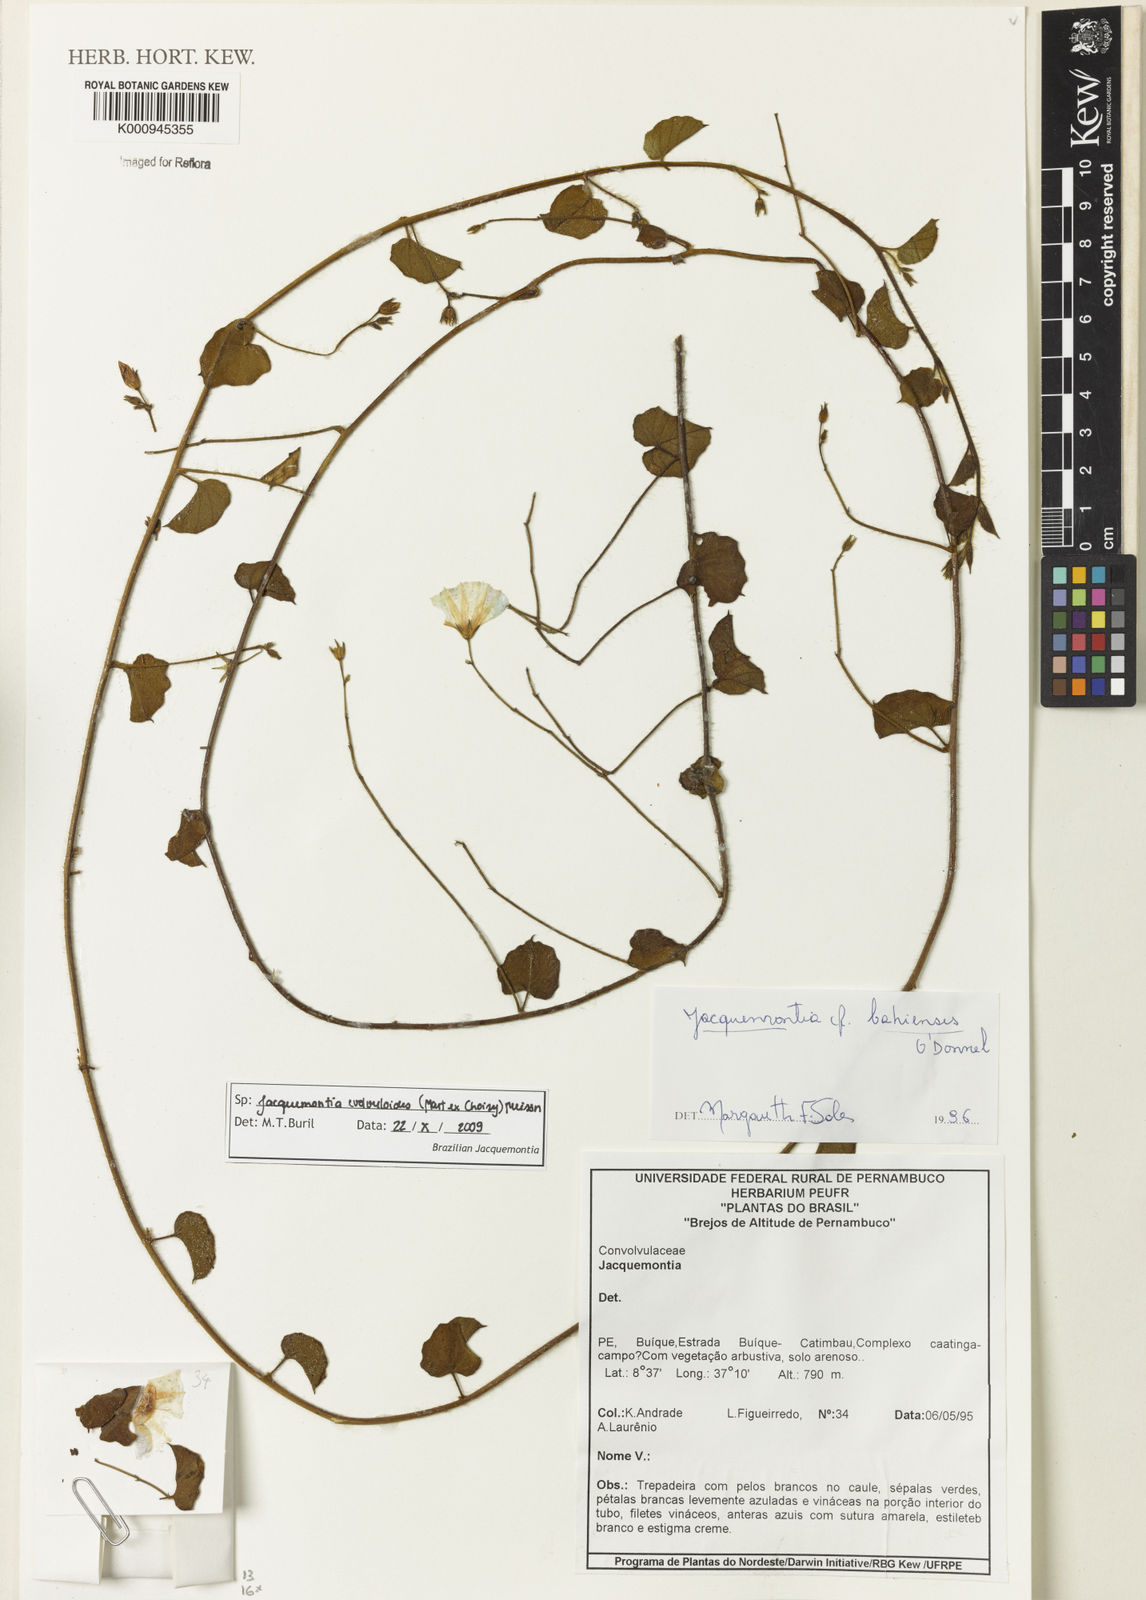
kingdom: Plantae
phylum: Tracheophyta
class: Magnoliopsida
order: Solanales
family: Convolvulaceae
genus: Jacquemontia
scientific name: Jacquemontia
